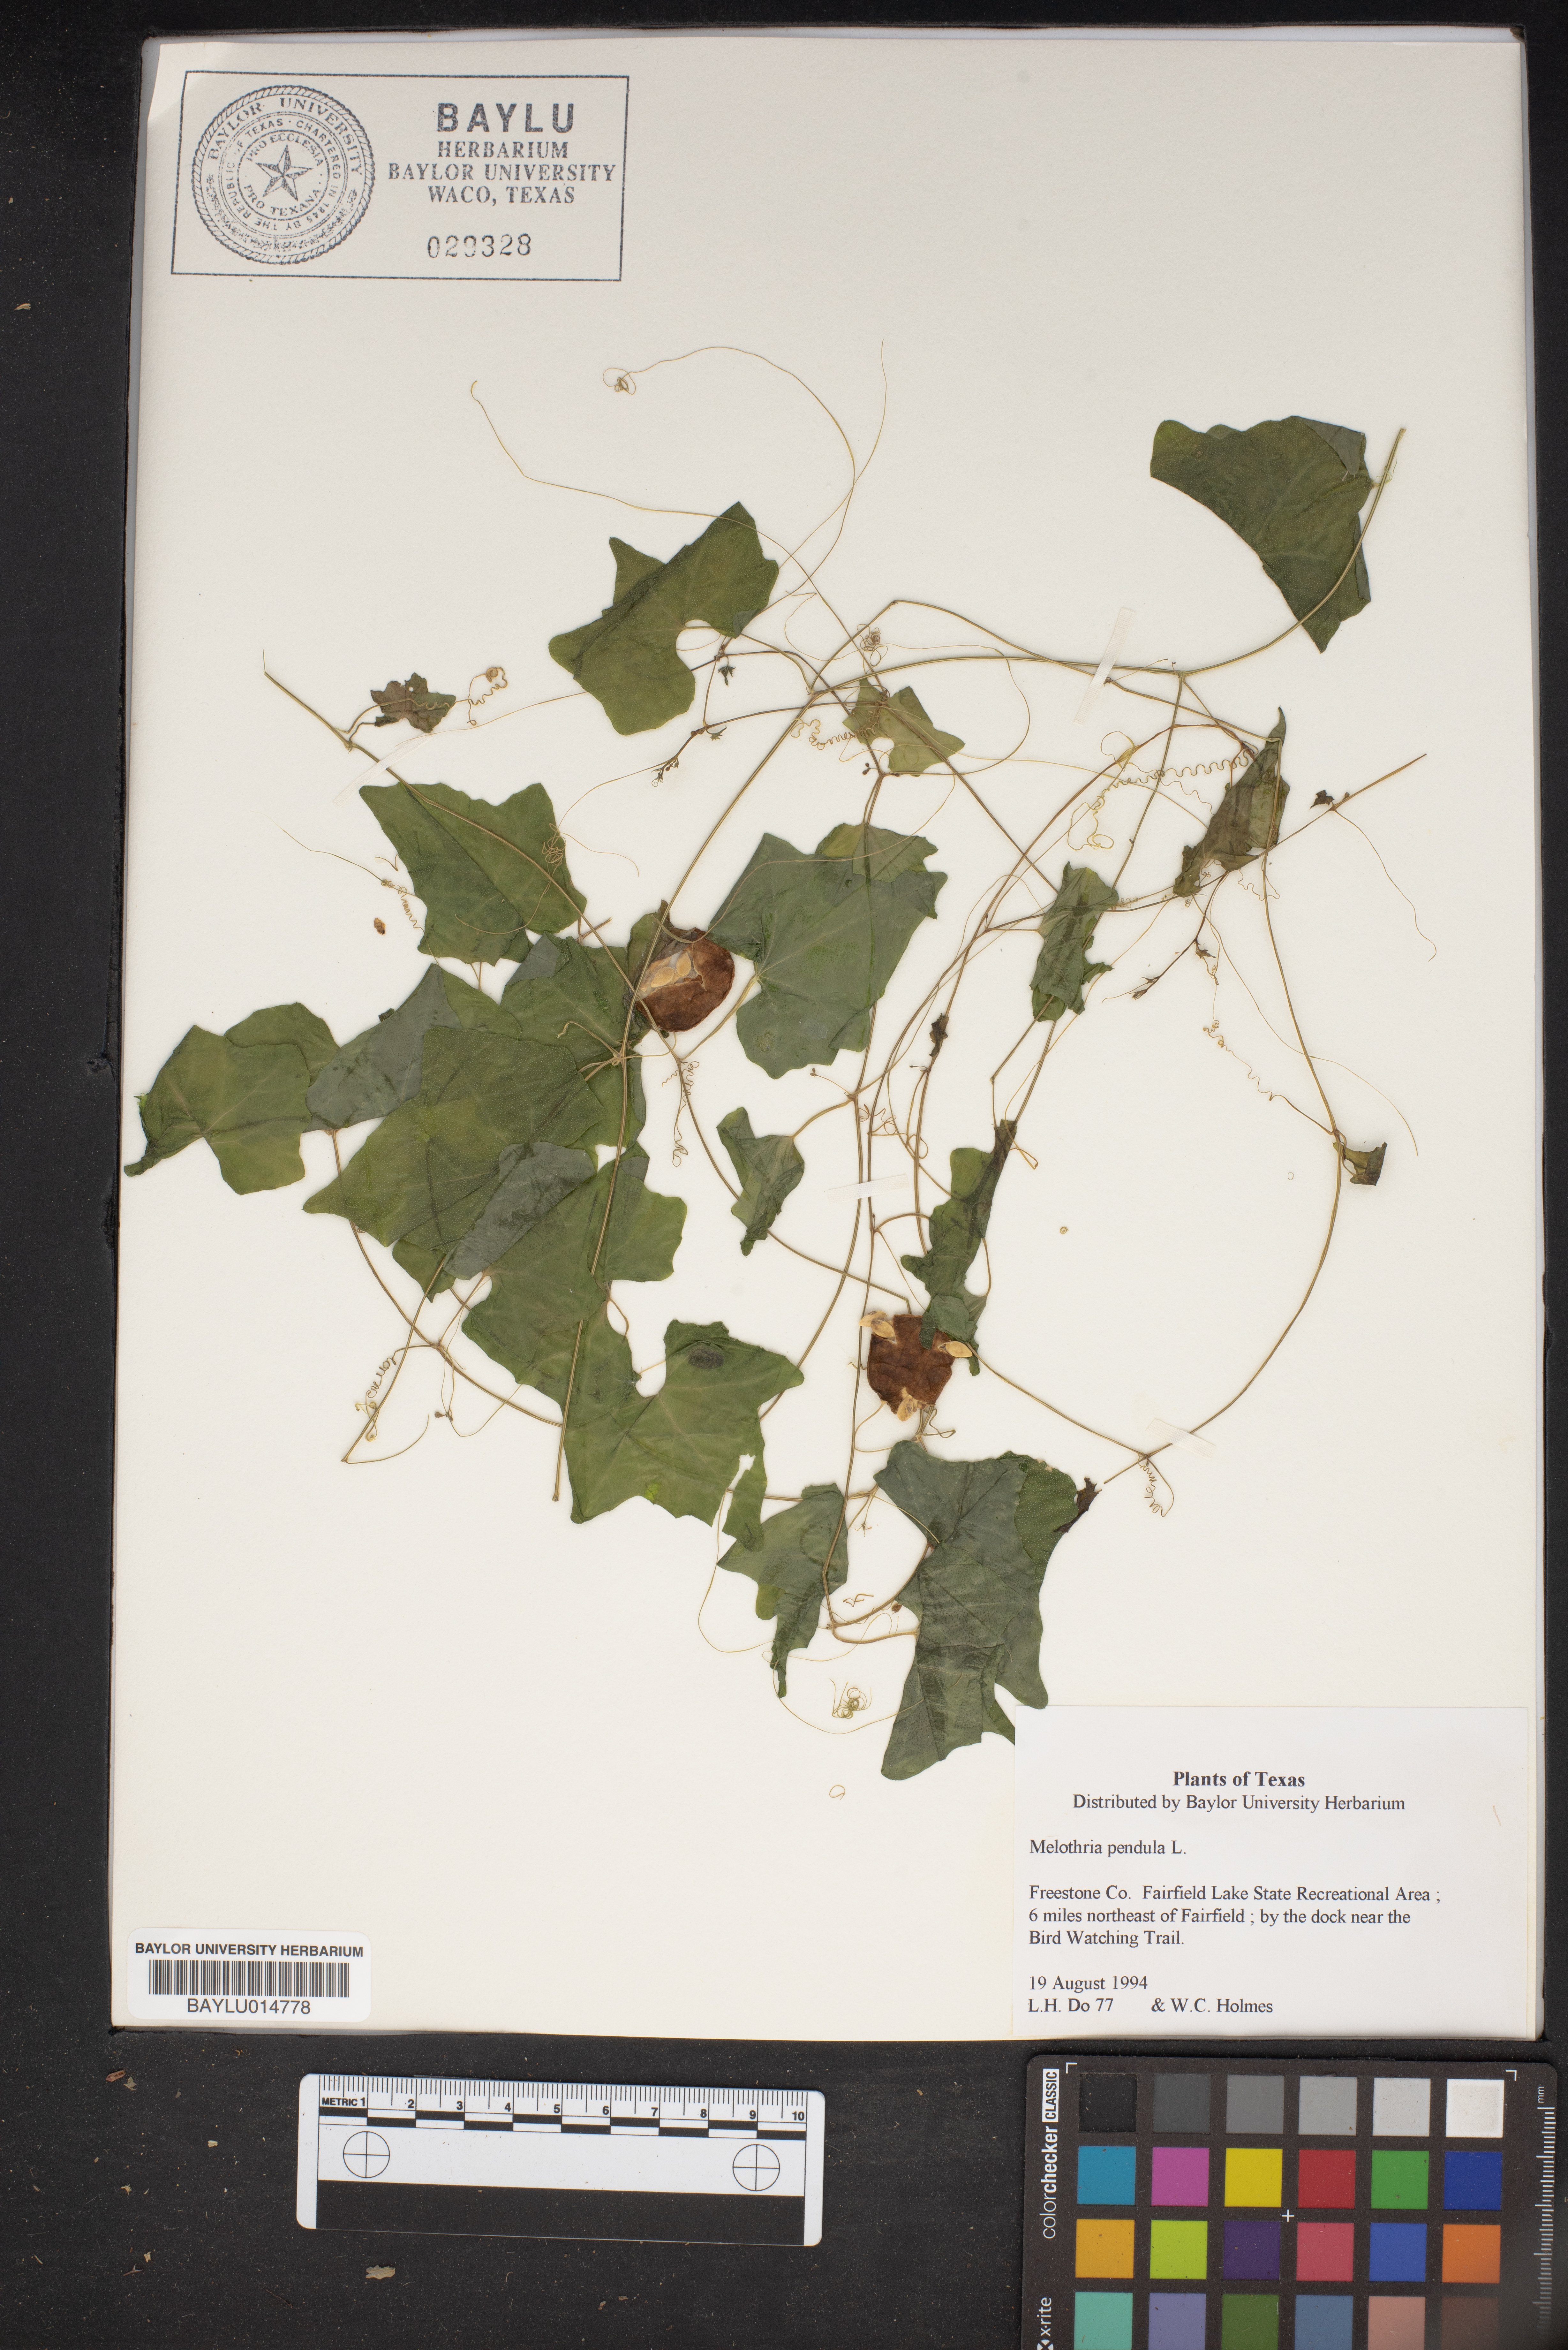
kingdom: Plantae
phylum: Tracheophyta
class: Magnoliopsida
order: Cucurbitales
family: Cucurbitaceae
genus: Melothria
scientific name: Melothria pendula
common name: Creeping-cucumber
